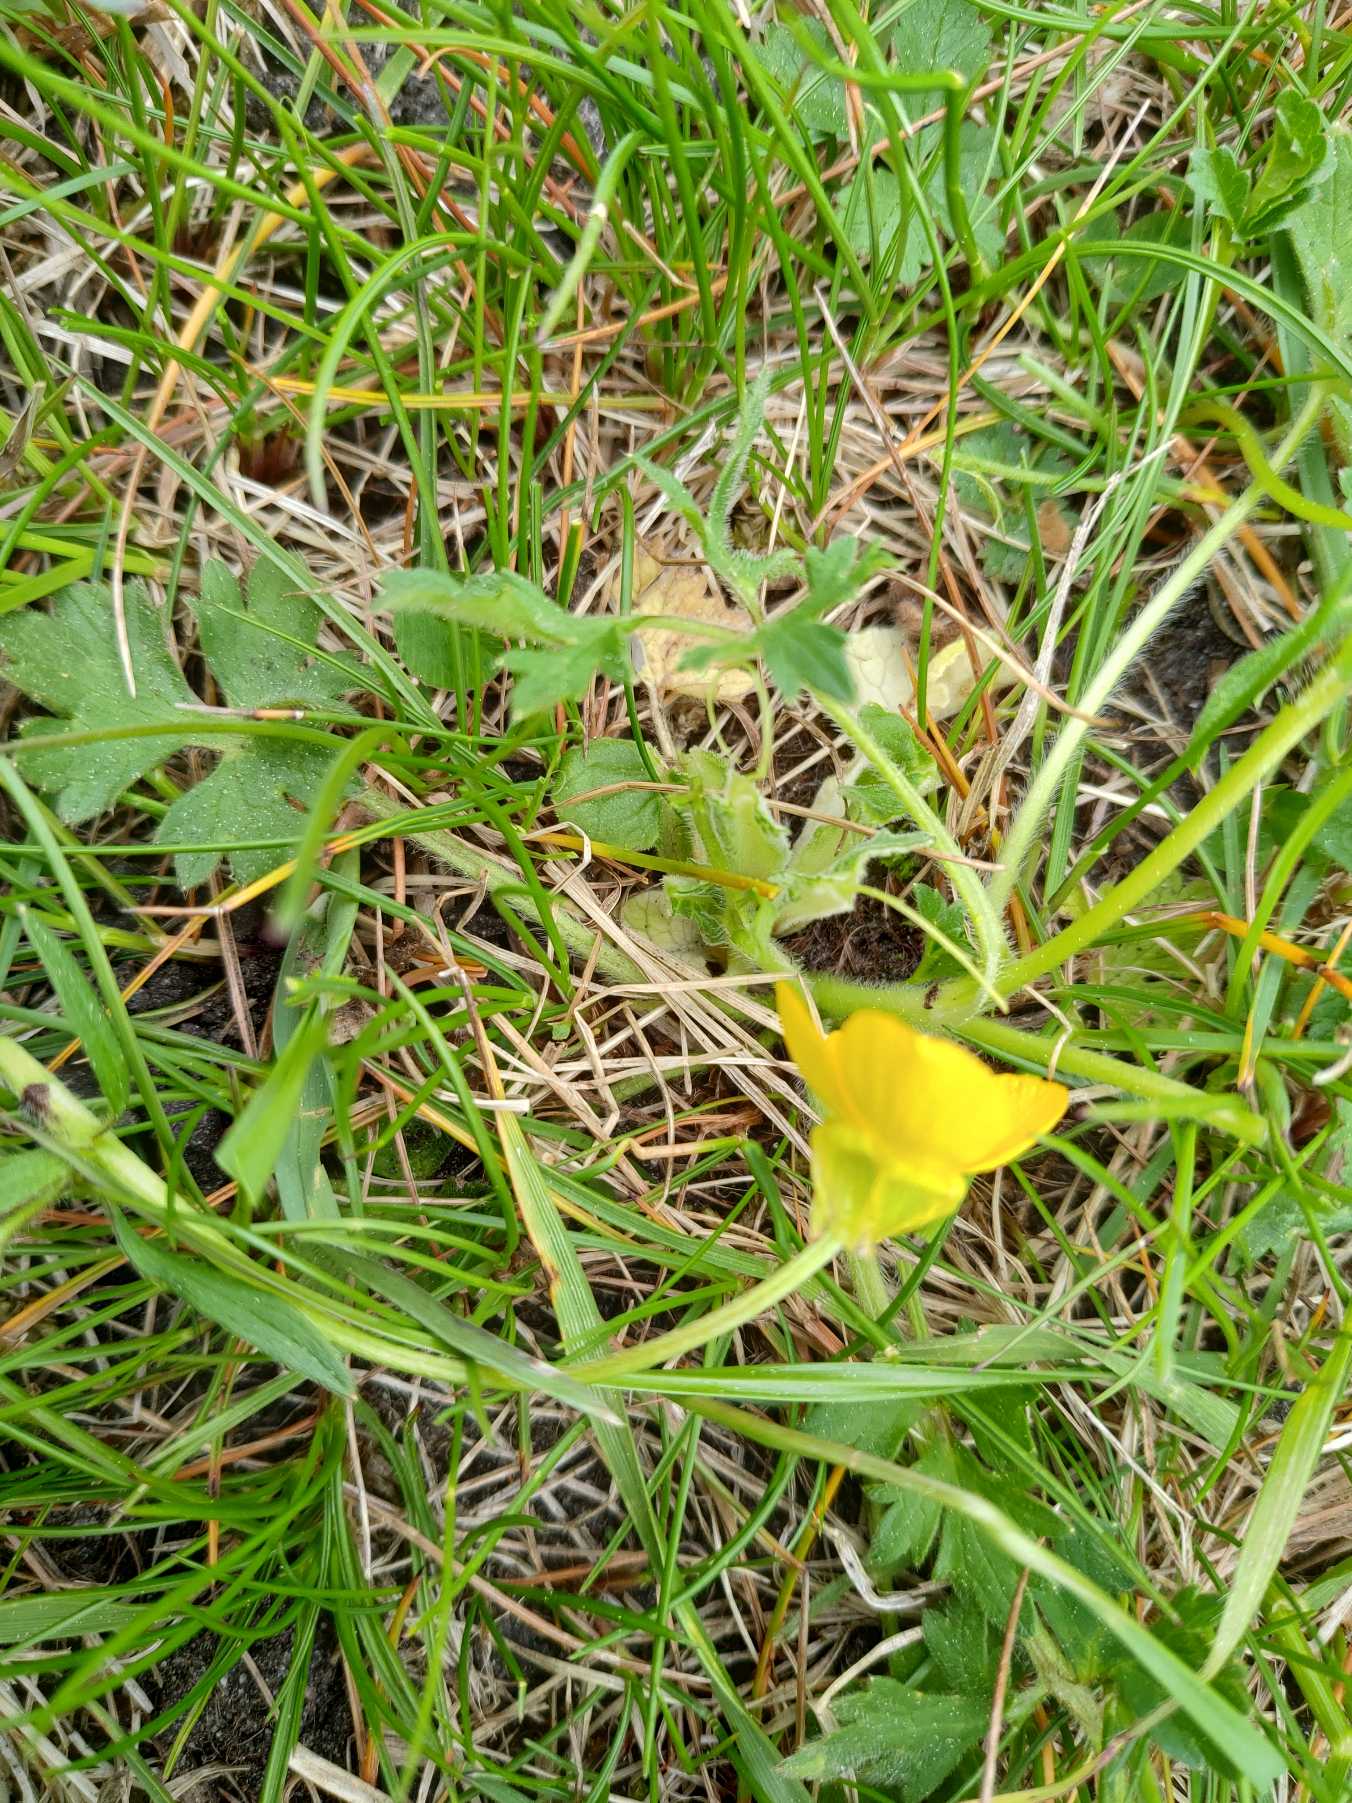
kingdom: Plantae
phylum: Tracheophyta
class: Magnoliopsida
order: Ranunculales
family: Ranunculaceae
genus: Ranunculus
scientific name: Ranunculus bulbosus
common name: Knold-ranunkel
